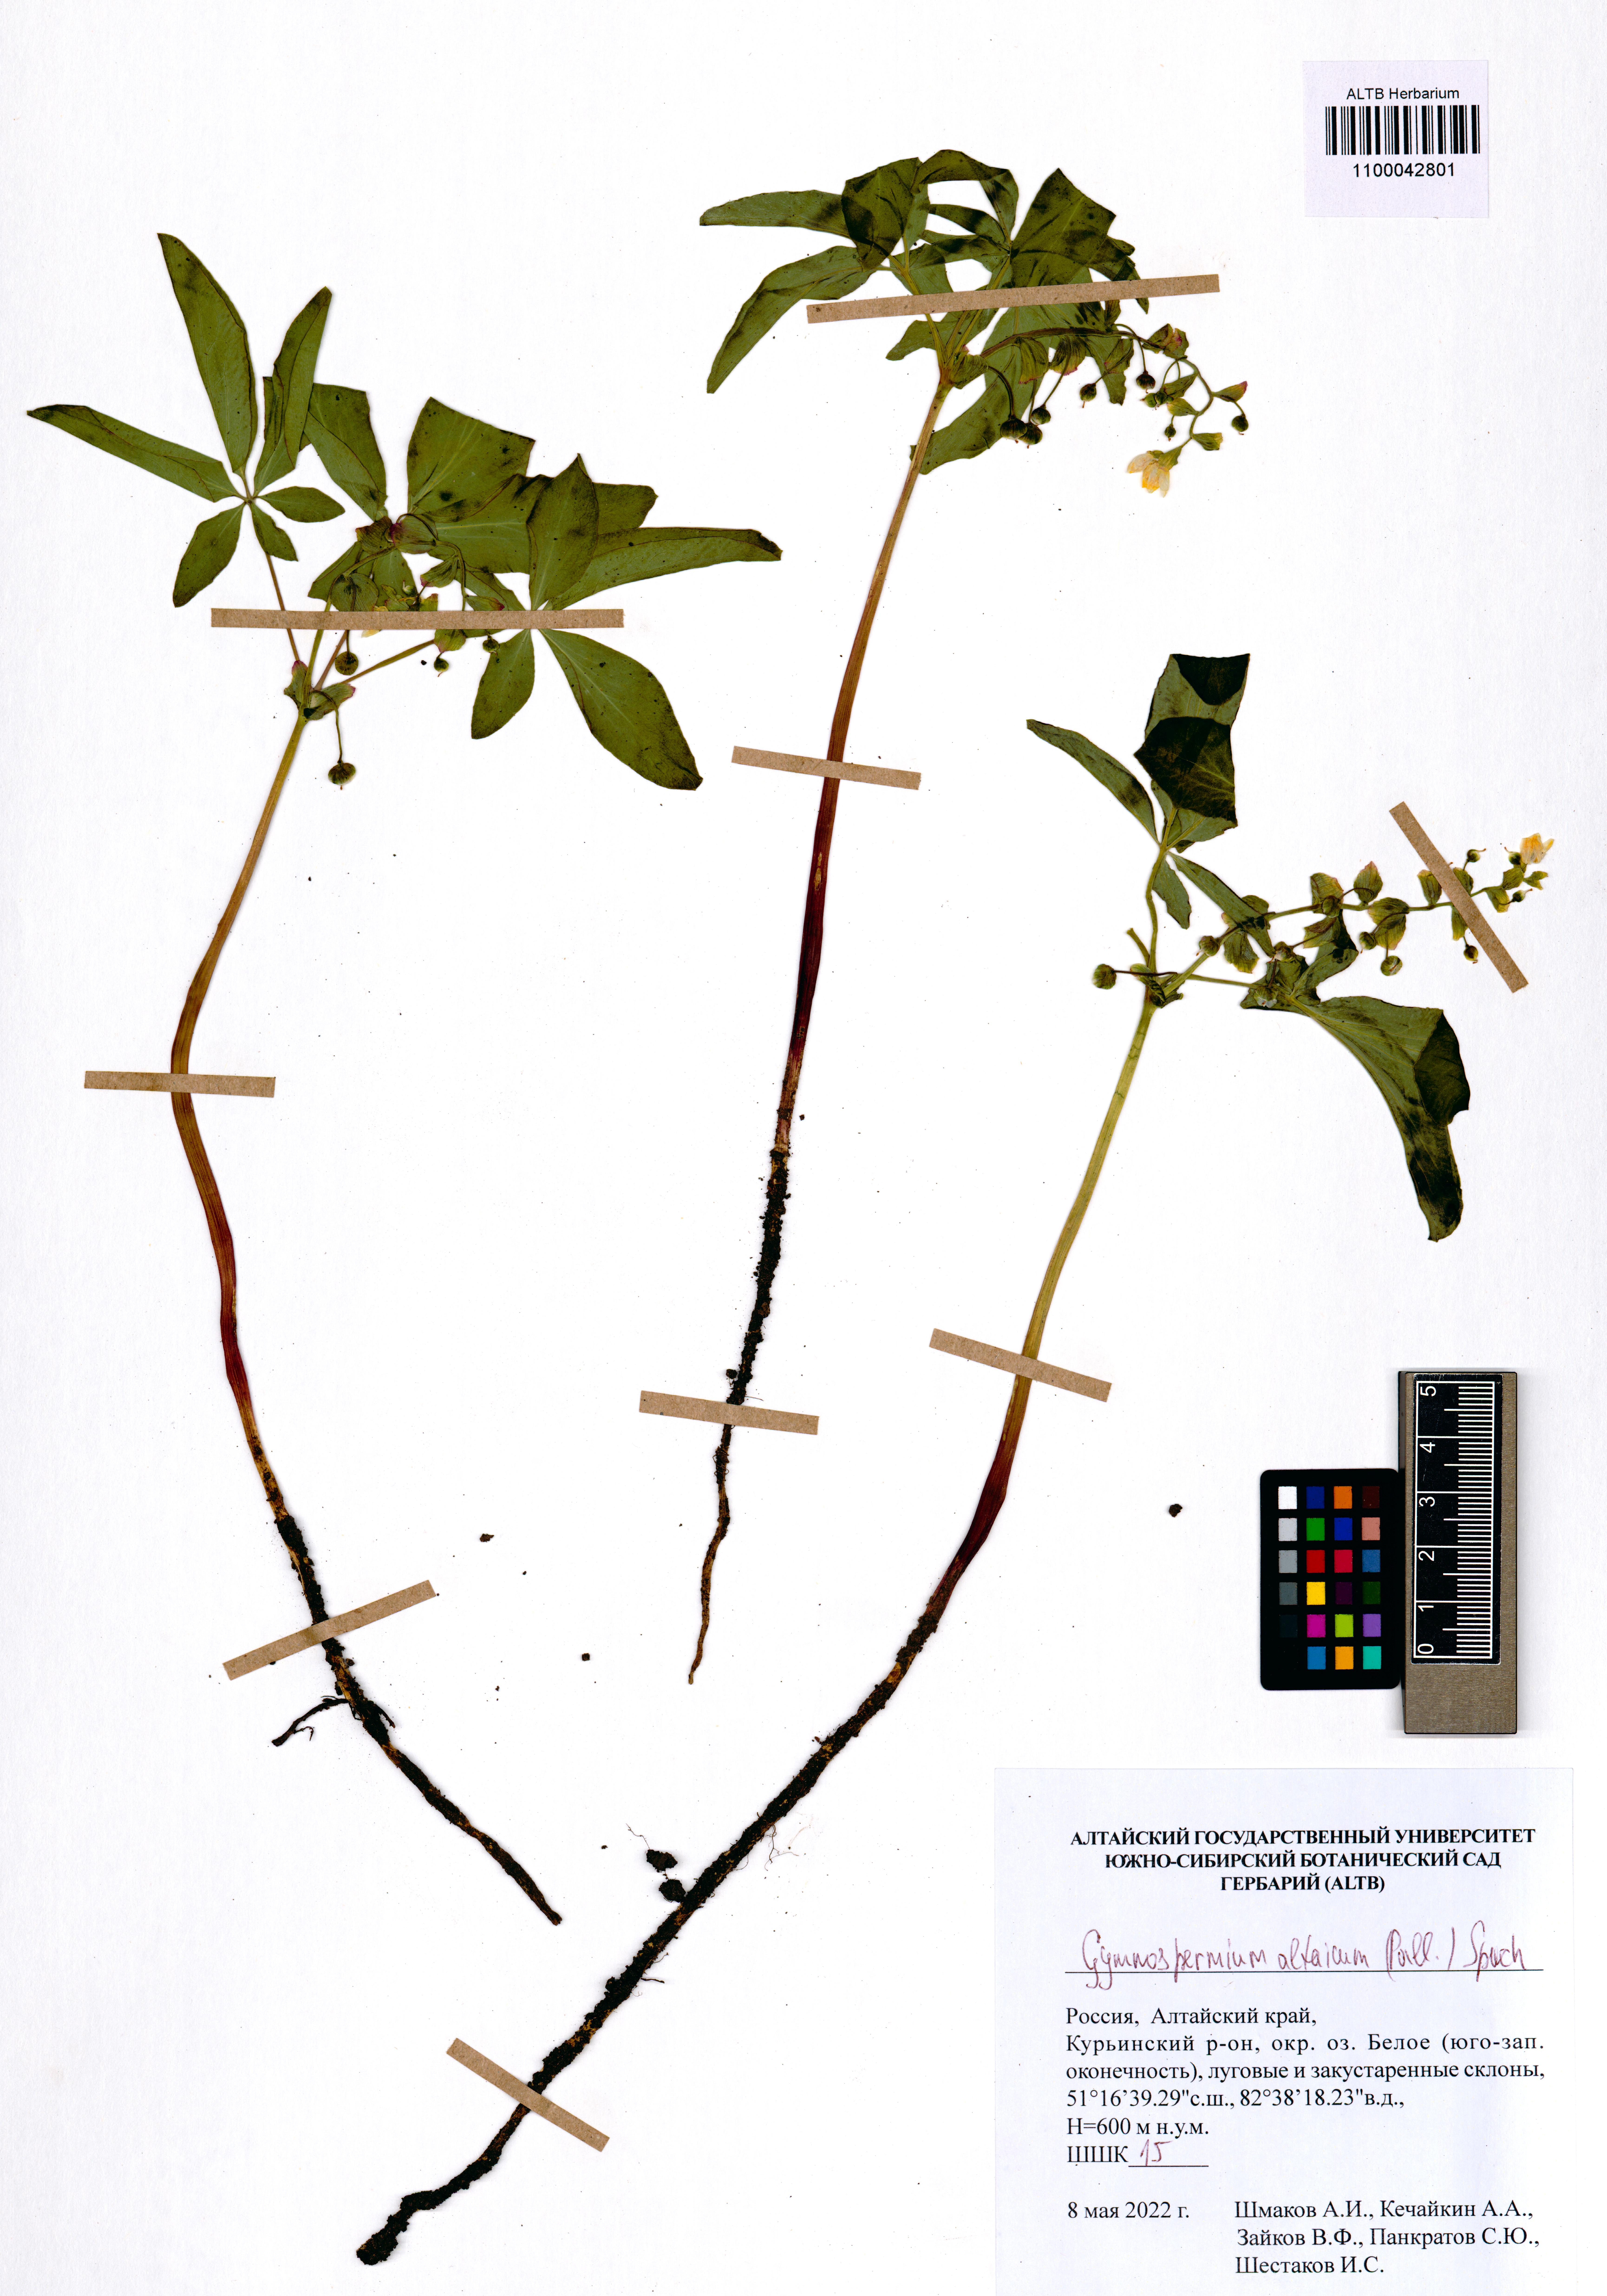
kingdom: Plantae
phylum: Tracheophyta
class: Magnoliopsida
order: Ranunculales
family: Berberidaceae
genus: Gymnospermium
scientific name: Gymnospermium altaicum
